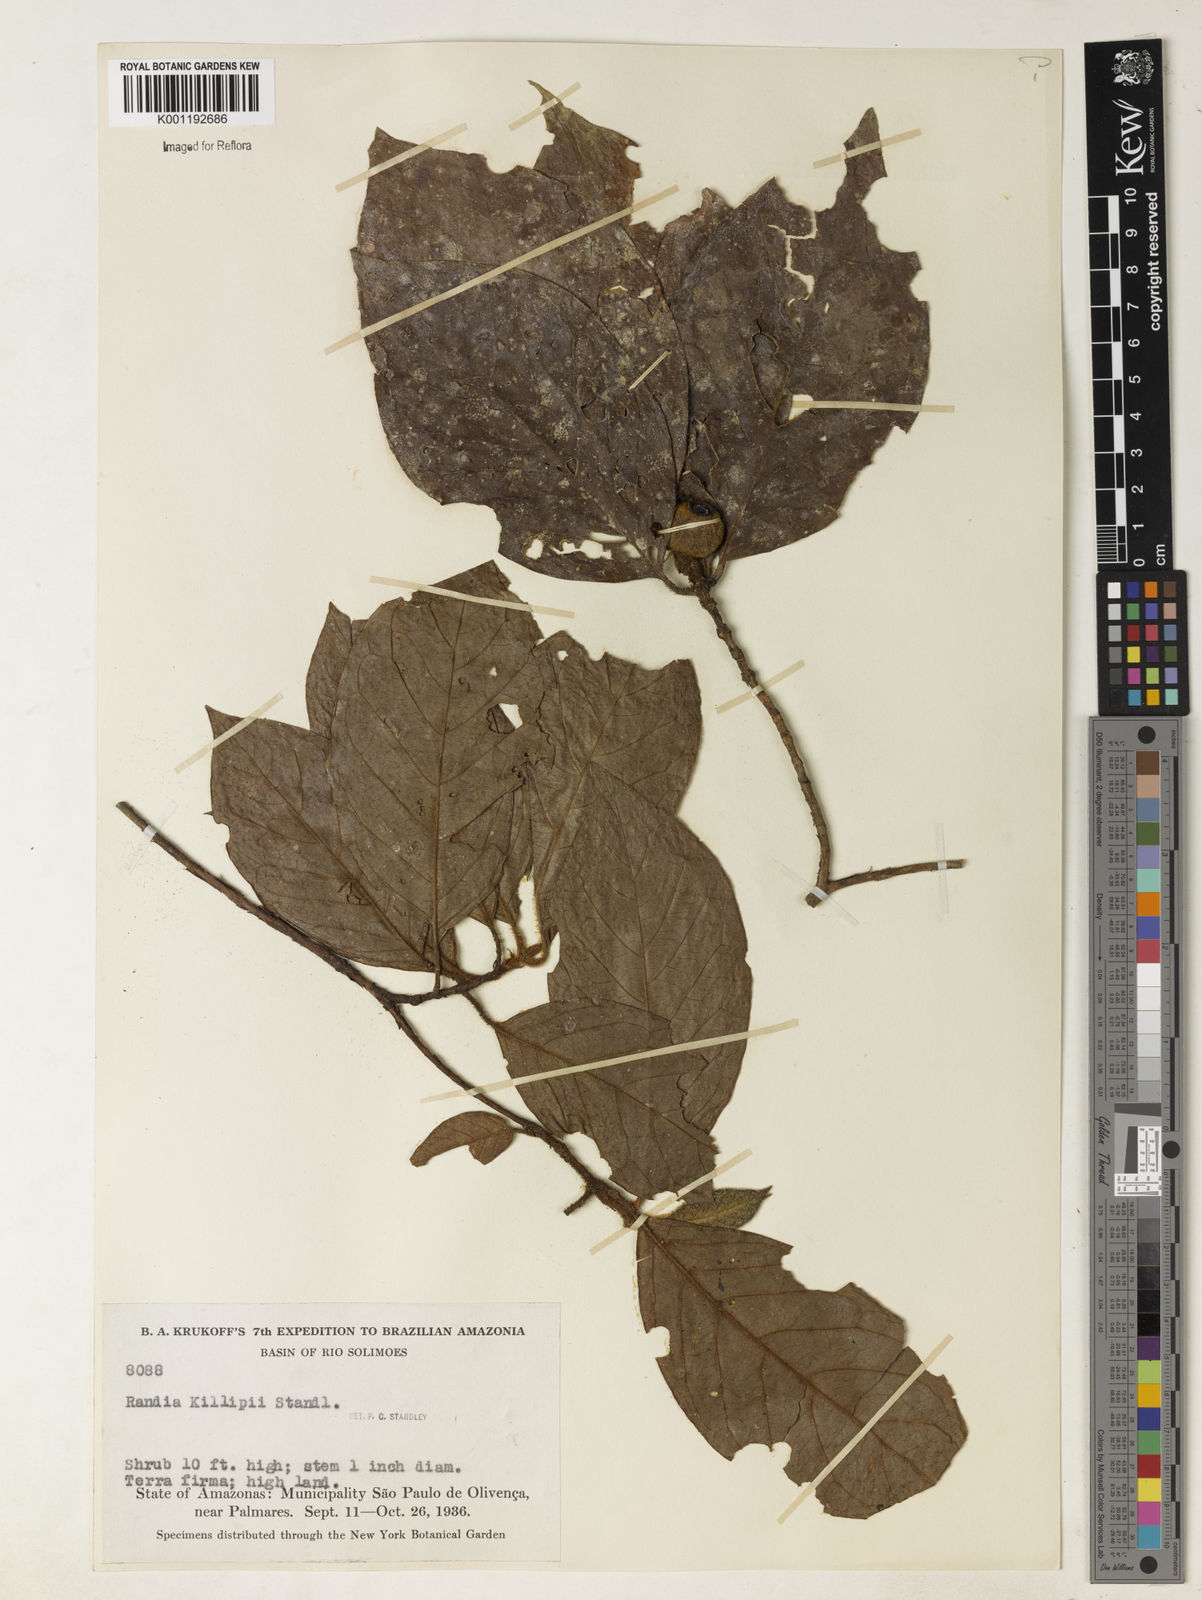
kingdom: Plantae
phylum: Tracheophyta
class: Magnoliopsida
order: Gentianales
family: Rubiaceae
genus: Cordiera
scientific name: Cordiera killipii
